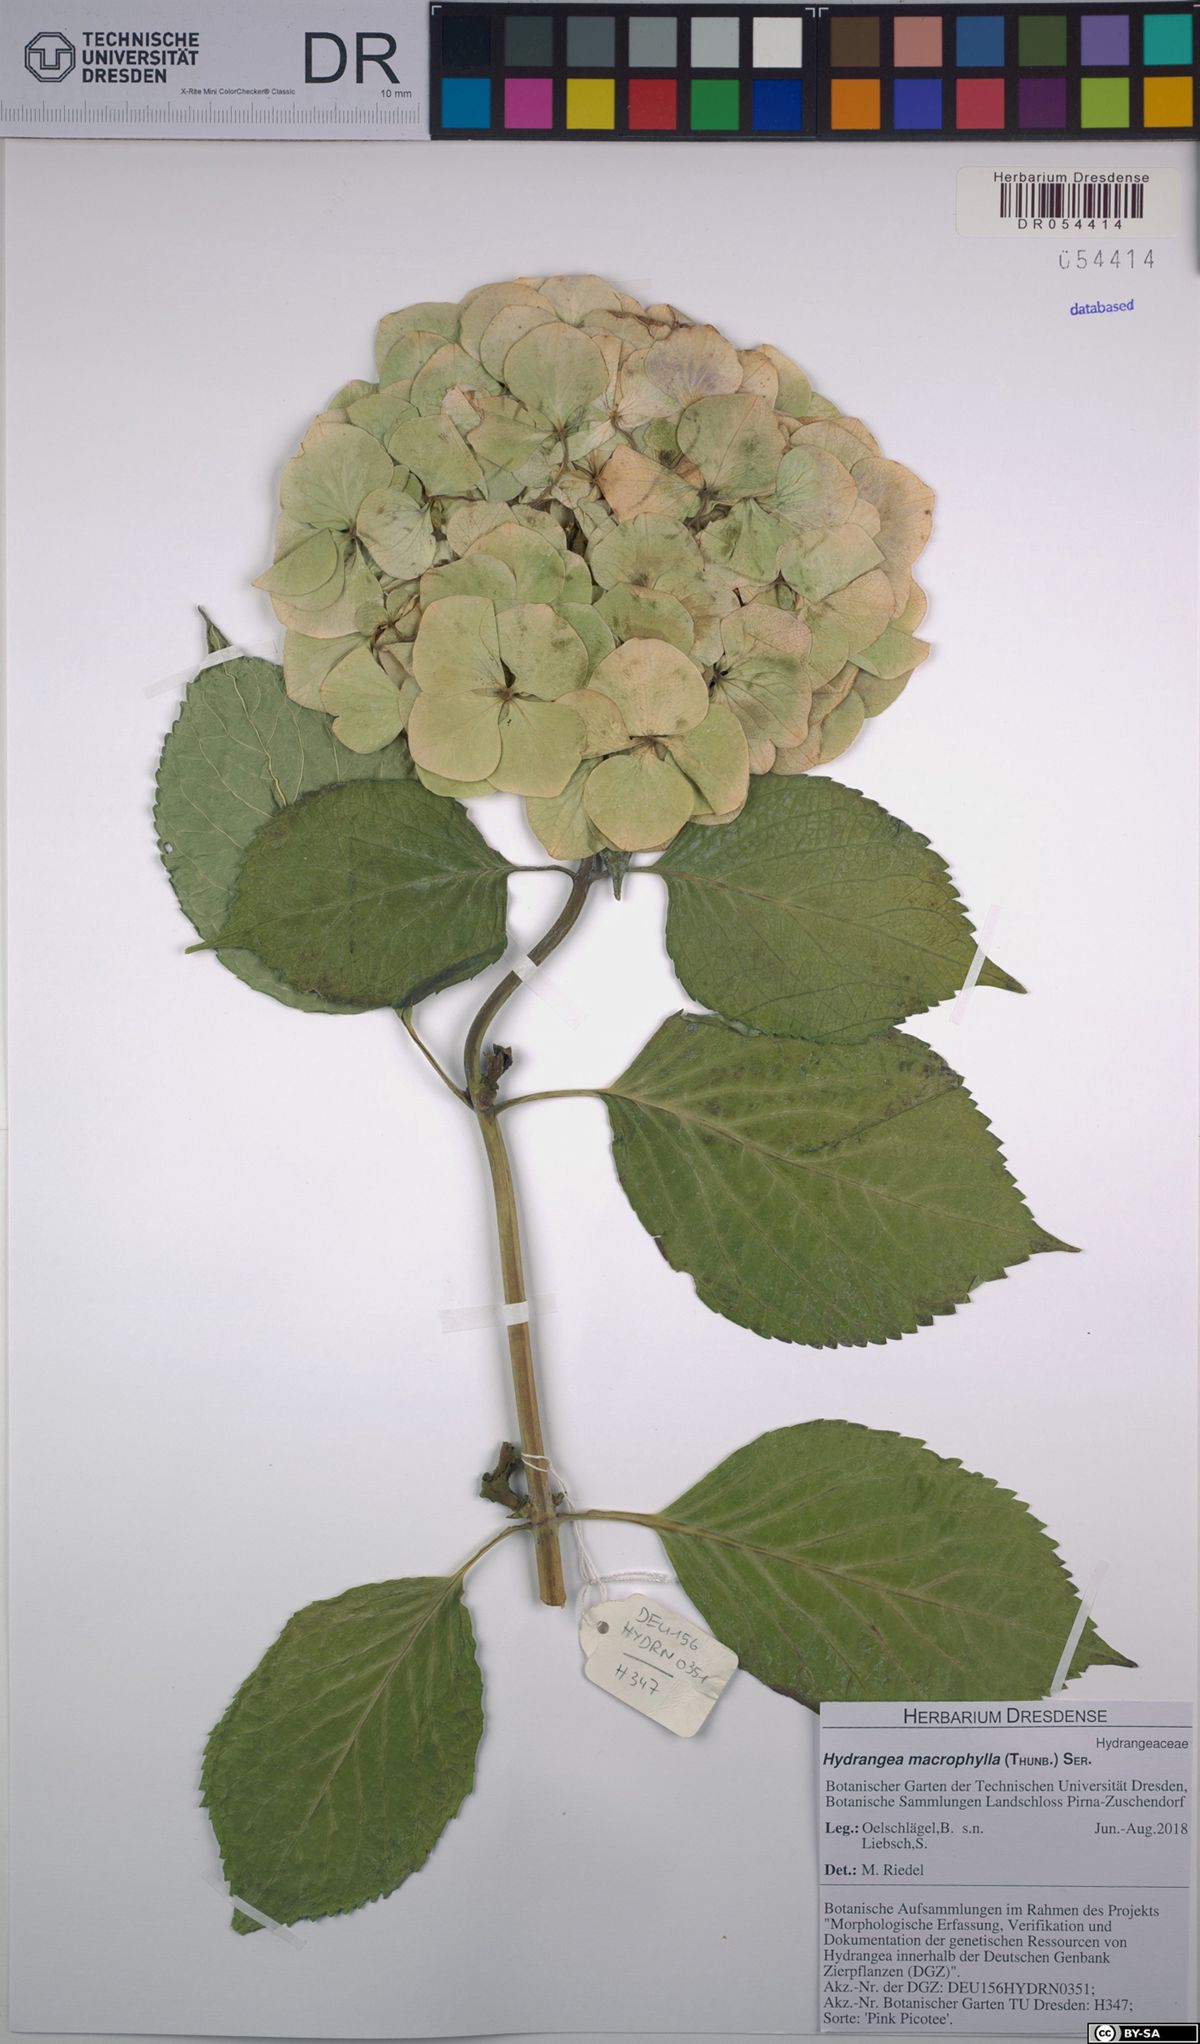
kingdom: Plantae
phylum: Tracheophyta
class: Magnoliopsida
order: Cornales
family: Hydrangeaceae
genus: Hydrangea
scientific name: Hydrangea macrophylla
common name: Hydrangea
